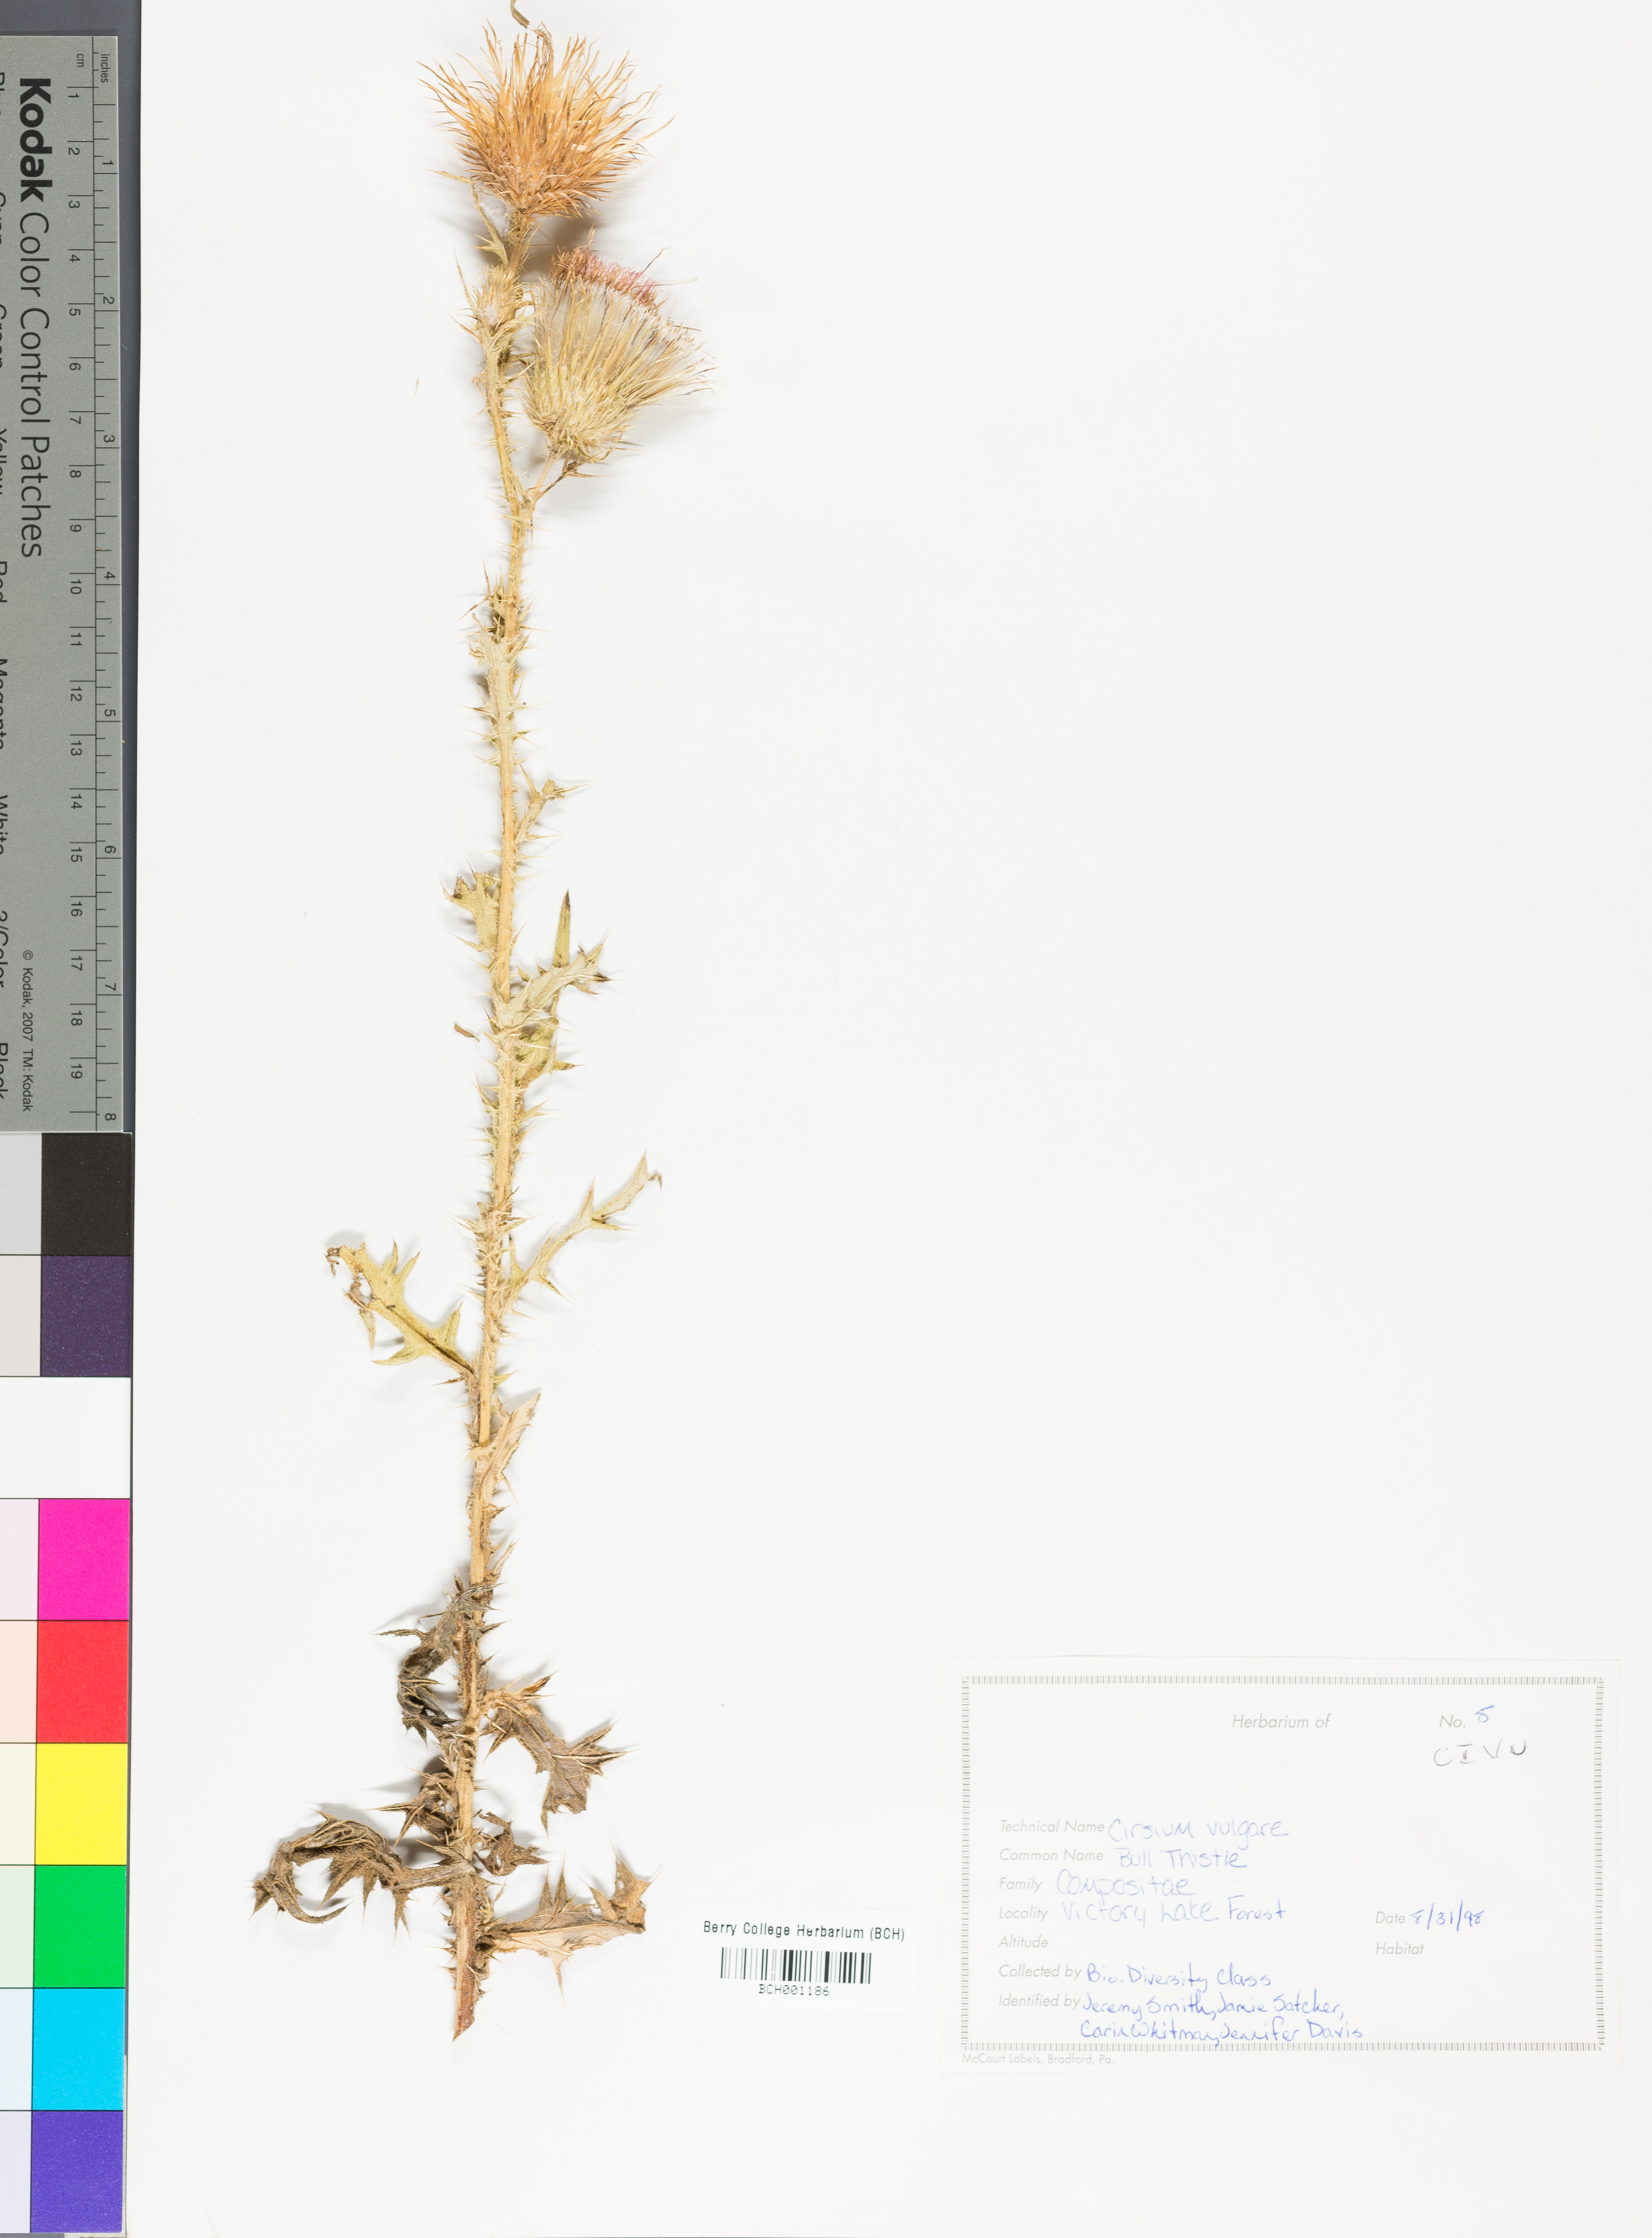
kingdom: Plantae
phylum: Tracheophyta
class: Magnoliopsida
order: Asterales
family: Asteraceae
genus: Cirsium
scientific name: Cirsium vulgare
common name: Bull thistle
